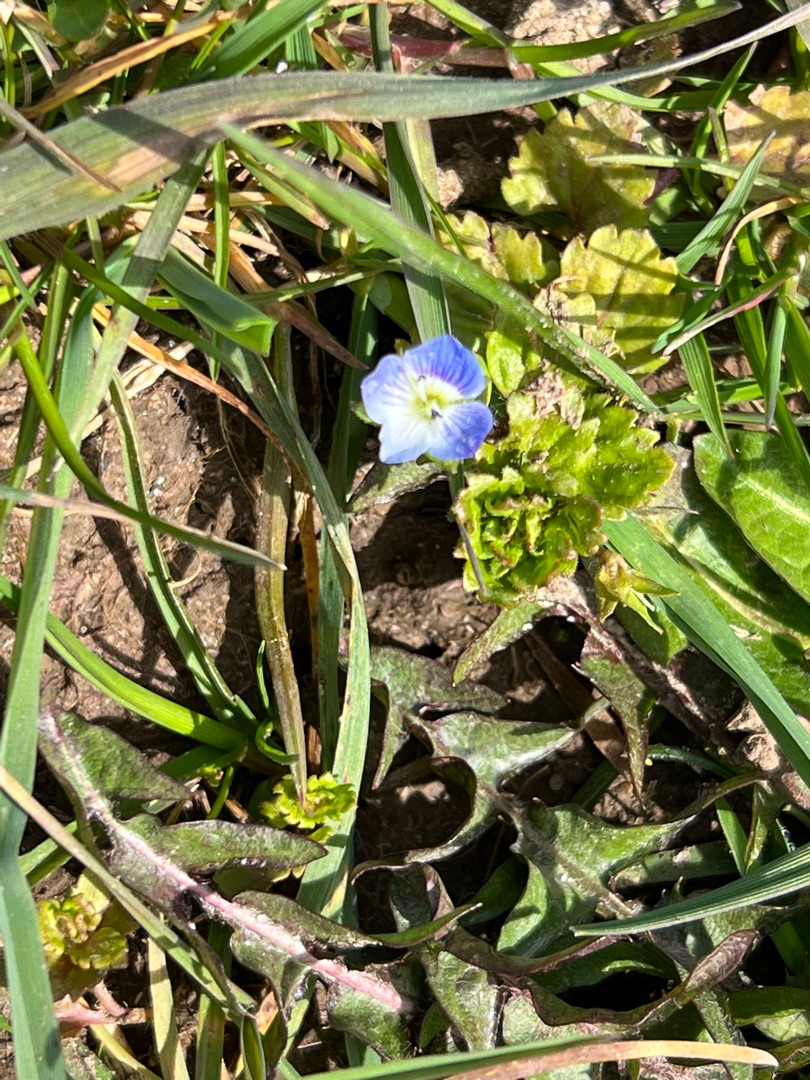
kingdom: Plantae
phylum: Tracheophyta
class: Magnoliopsida
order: Lamiales
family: Plantaginaceae
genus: Veronica
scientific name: Veronica persica
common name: Storkronet ærenpris
